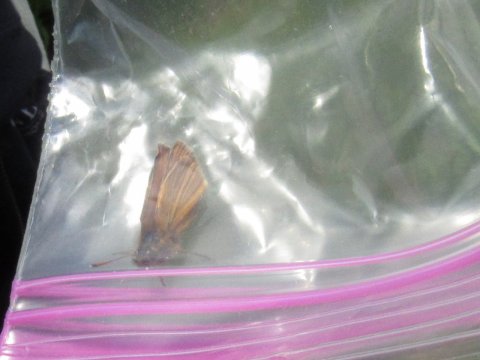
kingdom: Animalia
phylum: Arthropoda
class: Insecta
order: Lepidoptera
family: Hesperiidae
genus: Thymelicus
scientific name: Thymelicus lineola
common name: European Skipper
